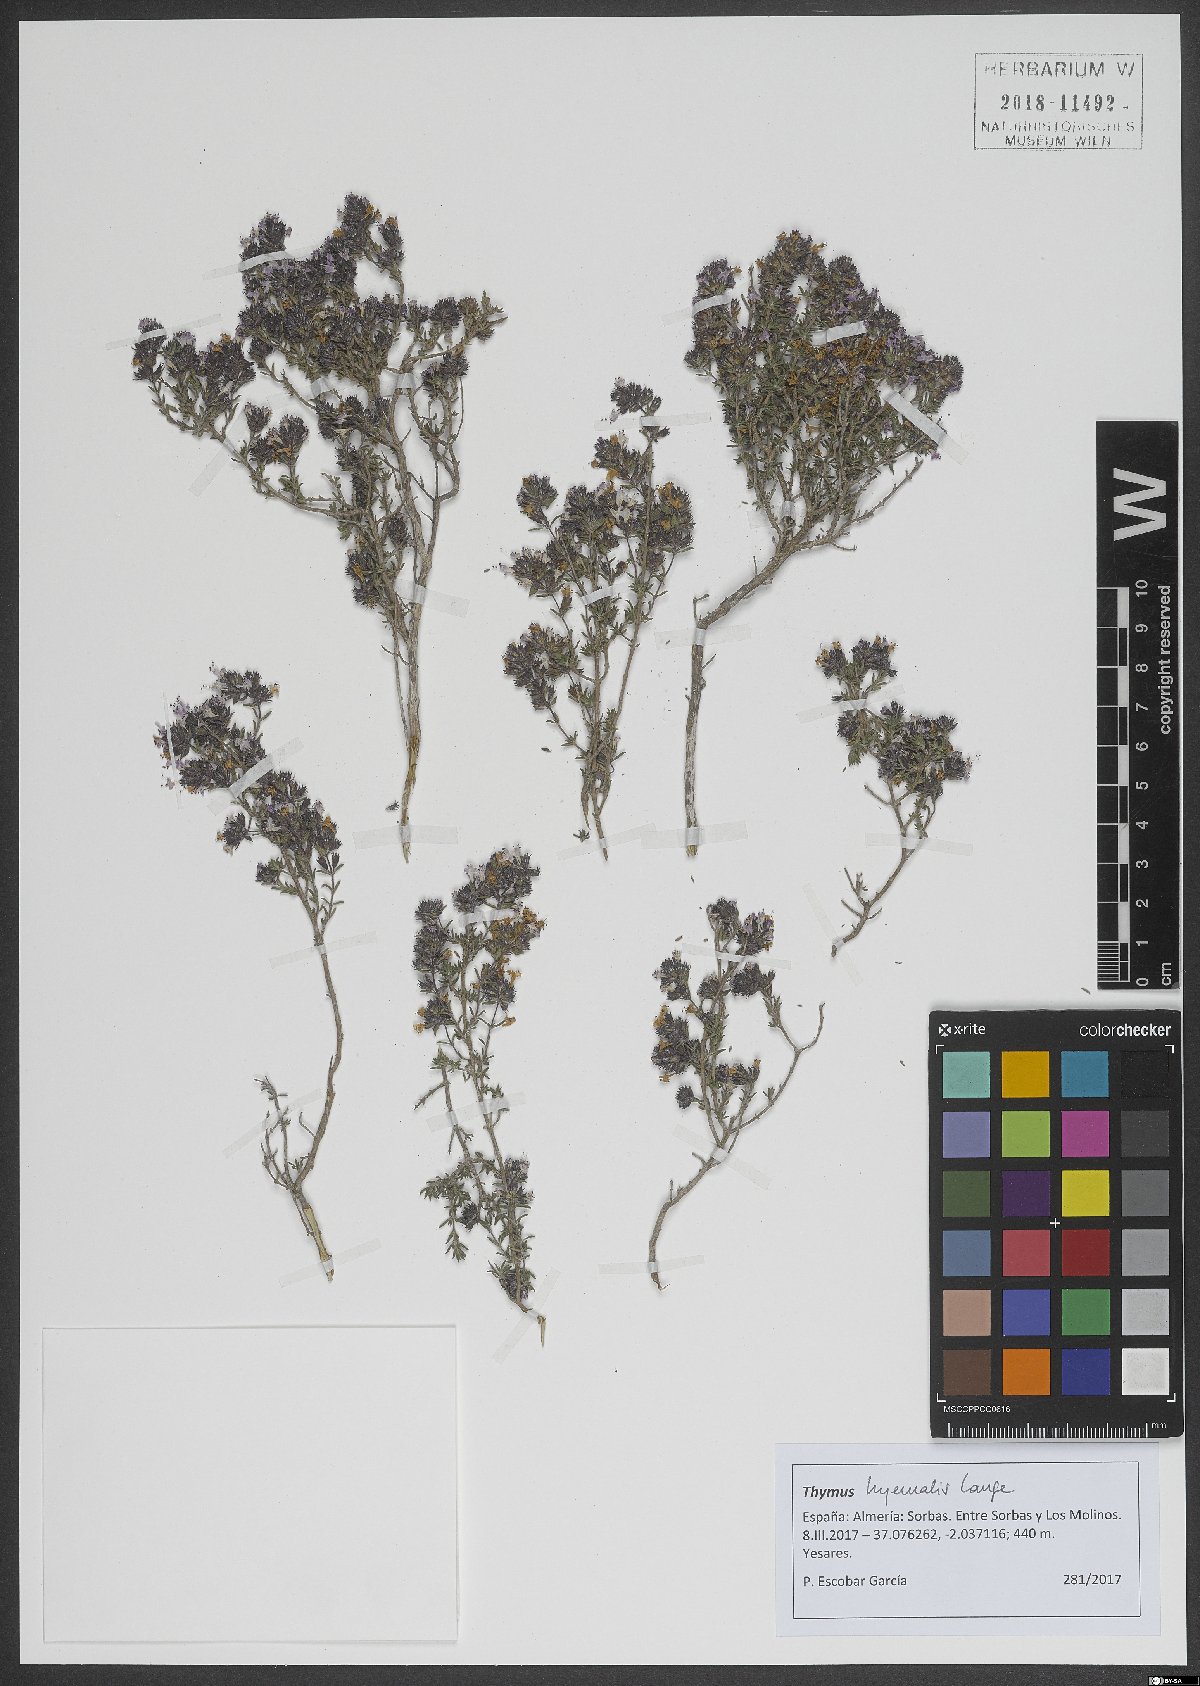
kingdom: Plantae
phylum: Tracheophyta
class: Magnoliopsida
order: Lamiales
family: Lamiaceae
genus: Thymus
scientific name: Thymus hyemalis
